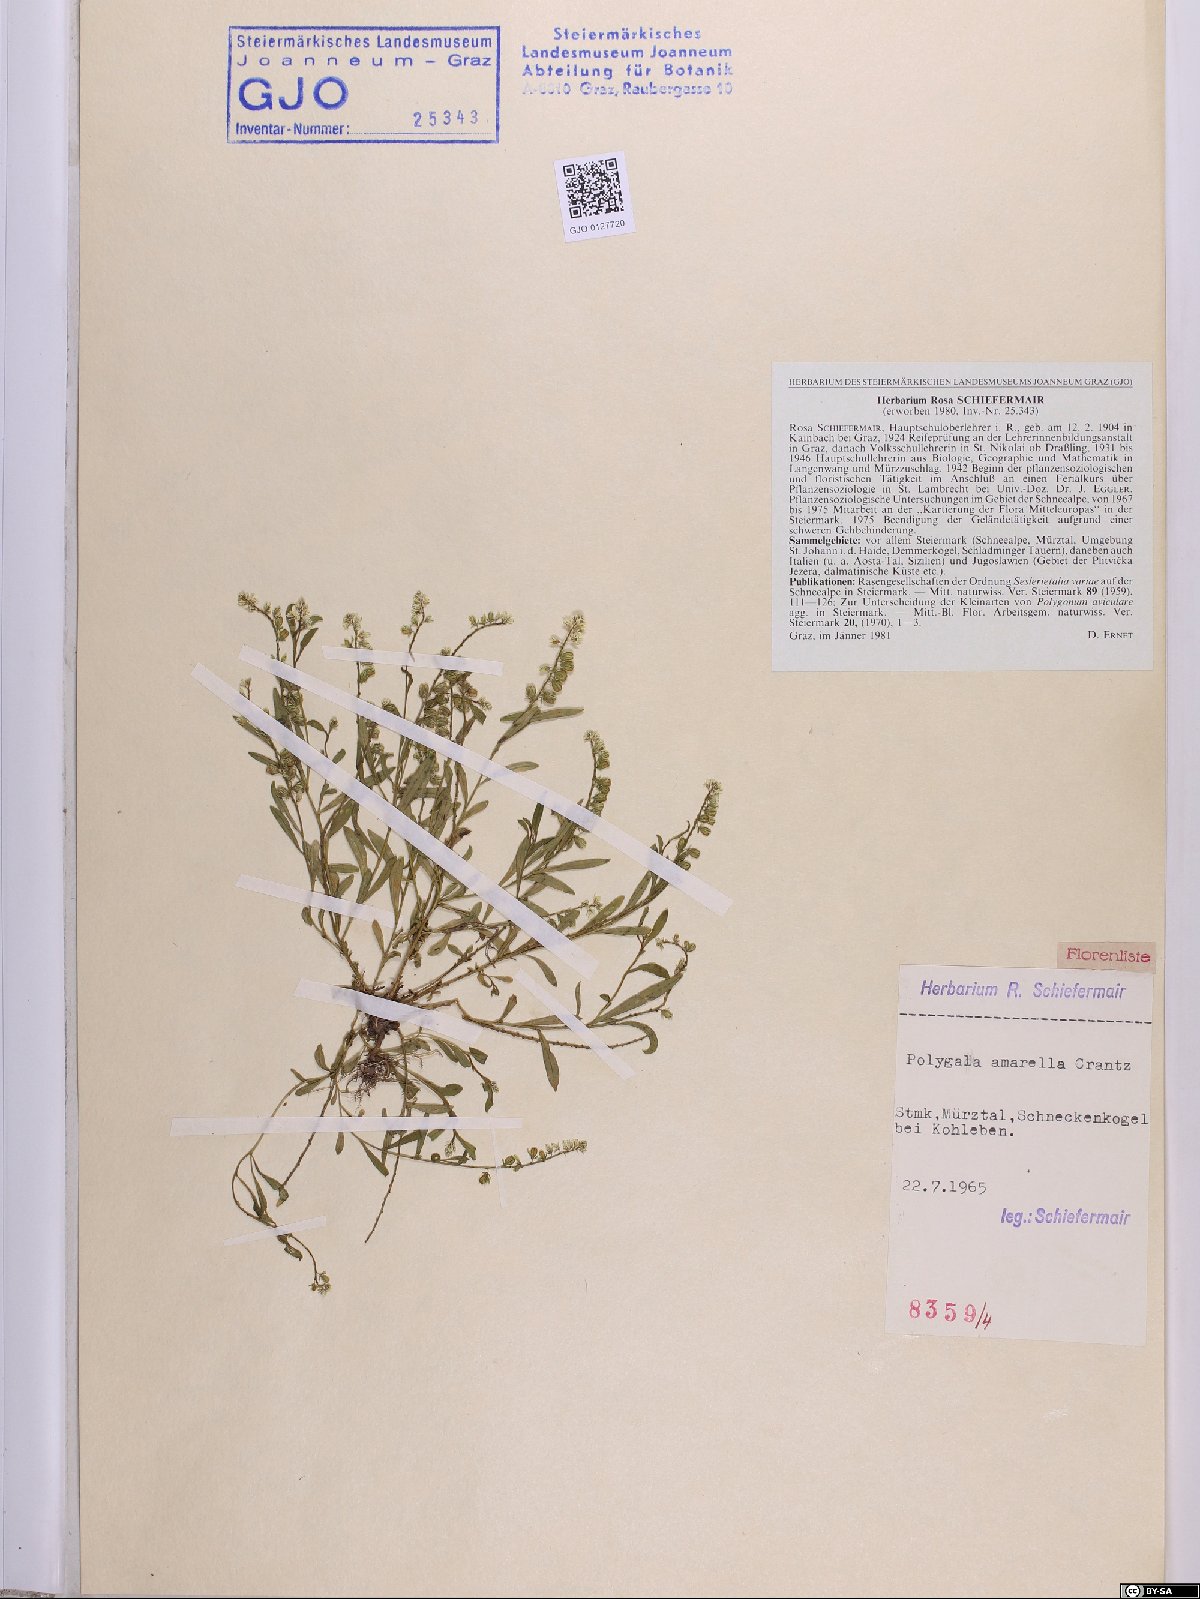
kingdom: Plantae
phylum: Tracheophyta
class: Magnoliopsida
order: Fabales
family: Polygalaceae
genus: Polygala
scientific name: Polygala amarella
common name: Dwarf milkwort
